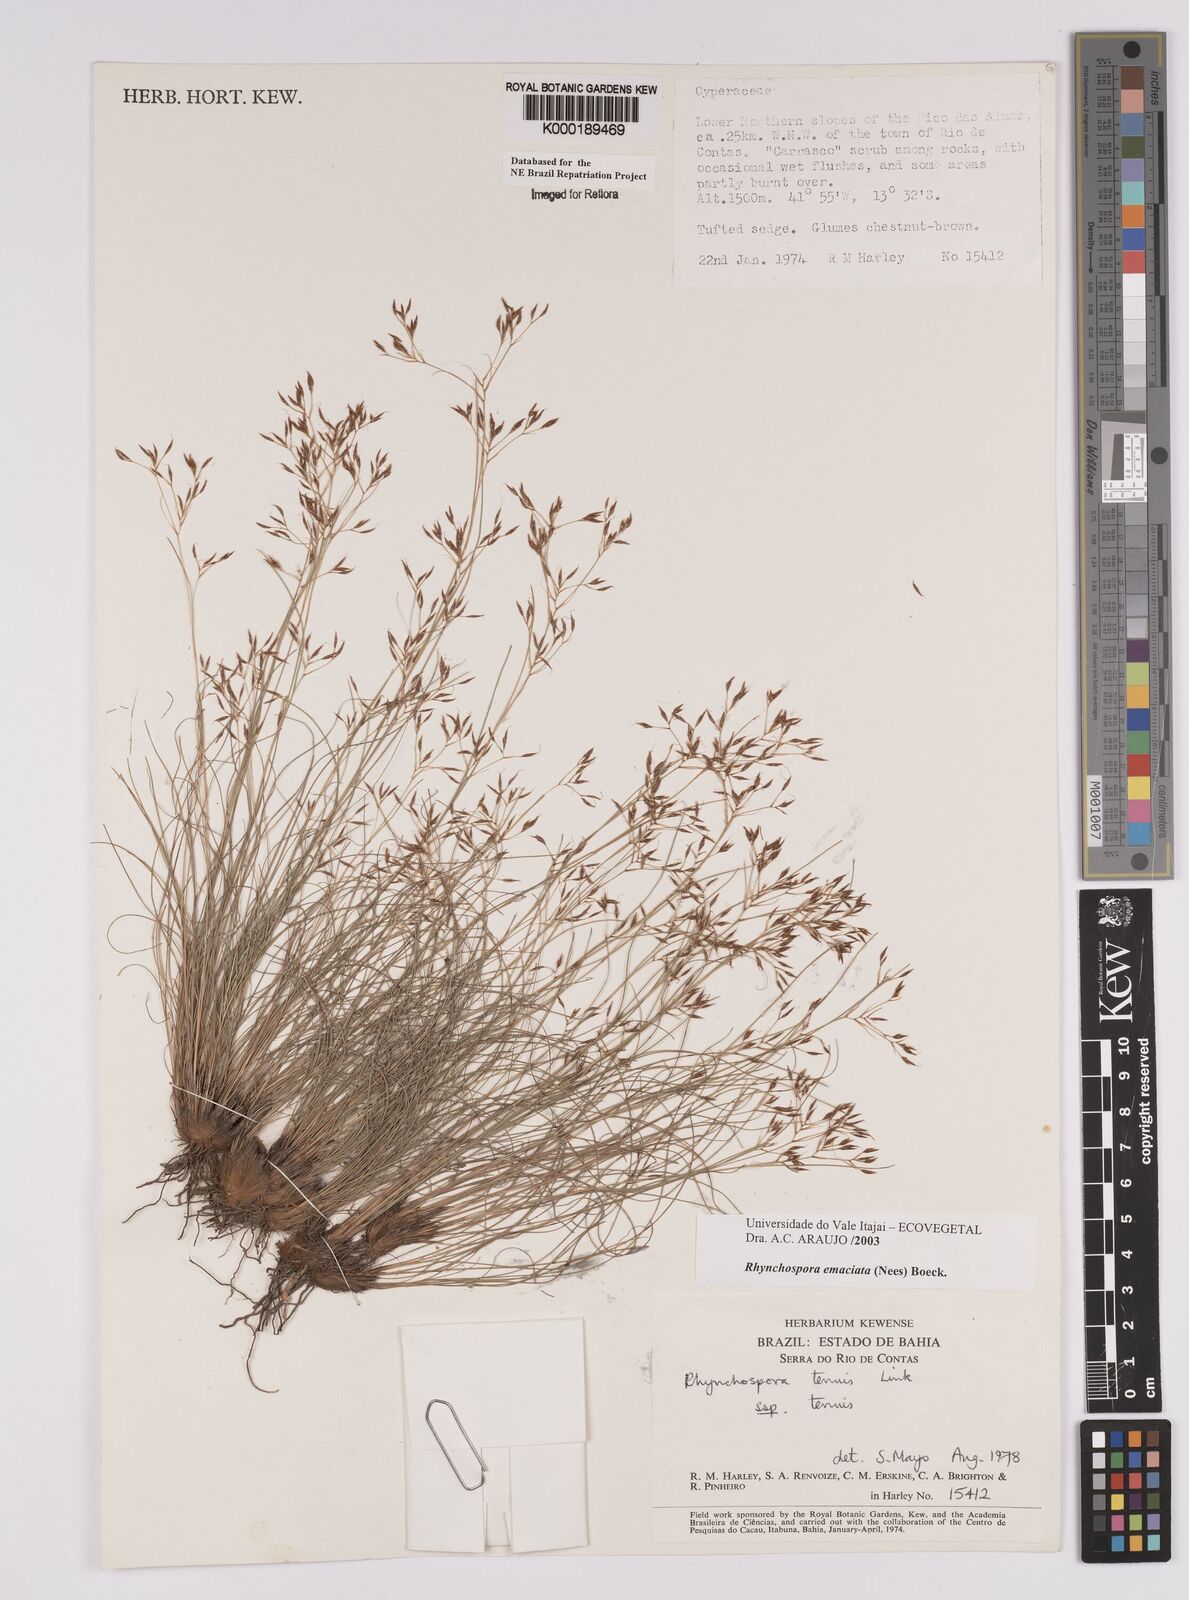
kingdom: Plantae
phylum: Tracheophyta
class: Liliopsida
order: Poales
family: Cyperaceae
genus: Rhynchospora
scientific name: Rhynchospora emaciata
